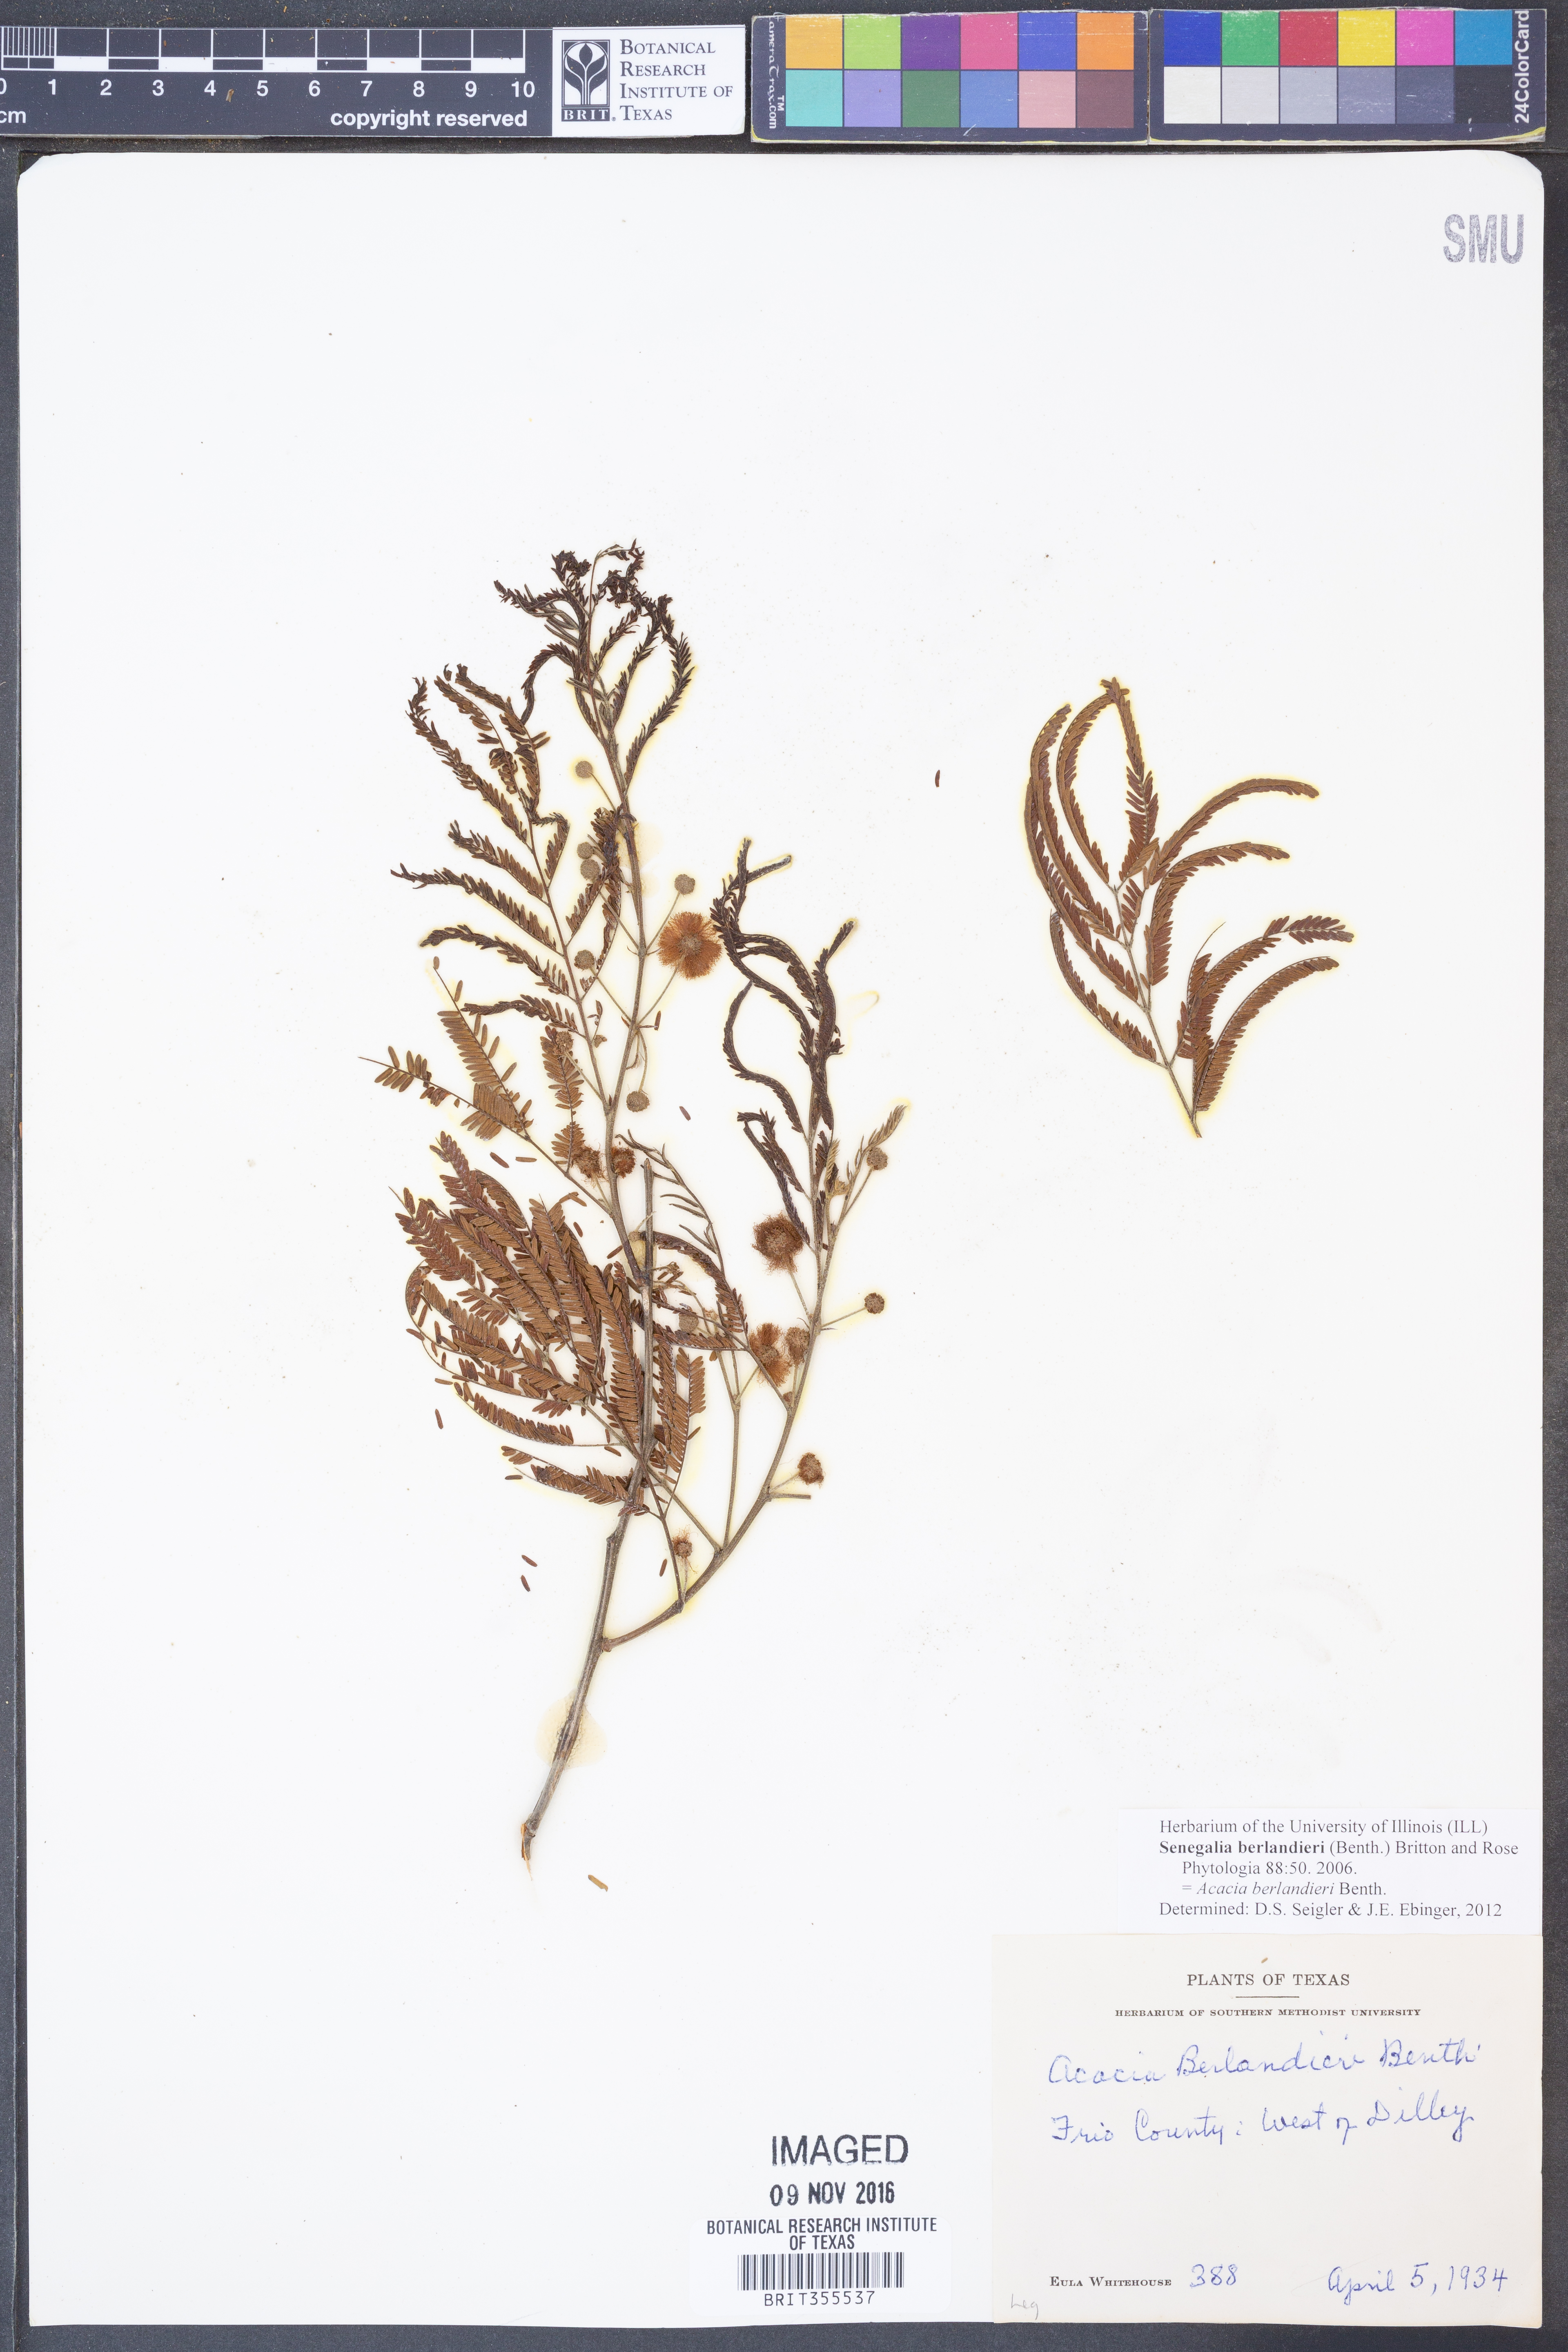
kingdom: Plantae
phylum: Tracheophyta
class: Magnoliopsida
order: Fabales
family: Fabaceae
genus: Senegalia
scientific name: Senegalia berlandieri
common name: Berlandier acacia
